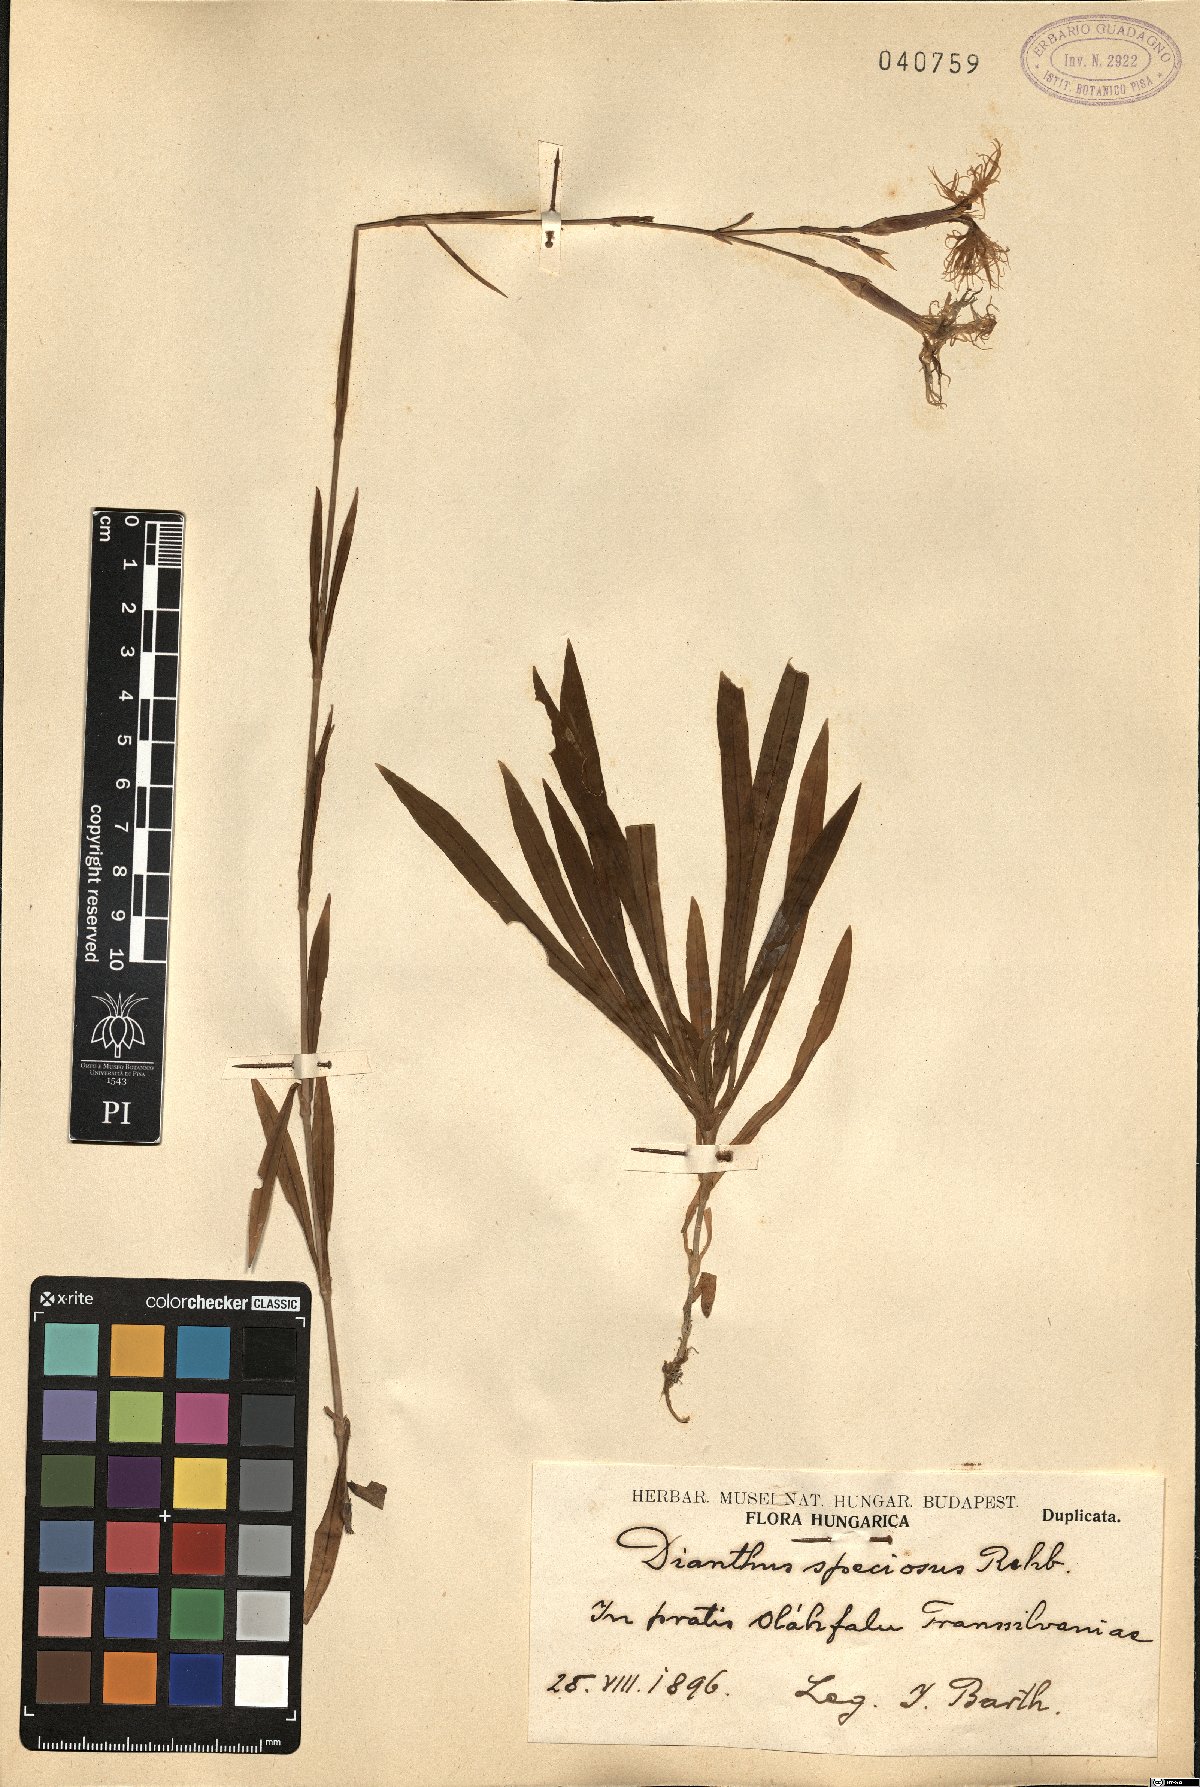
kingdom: Plantae
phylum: Tracheophyta
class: Magnoliopsida
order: Caryophyllales
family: Caryophyllaceae
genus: Dianthus
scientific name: Dianthus superbus
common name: Fringed pink
